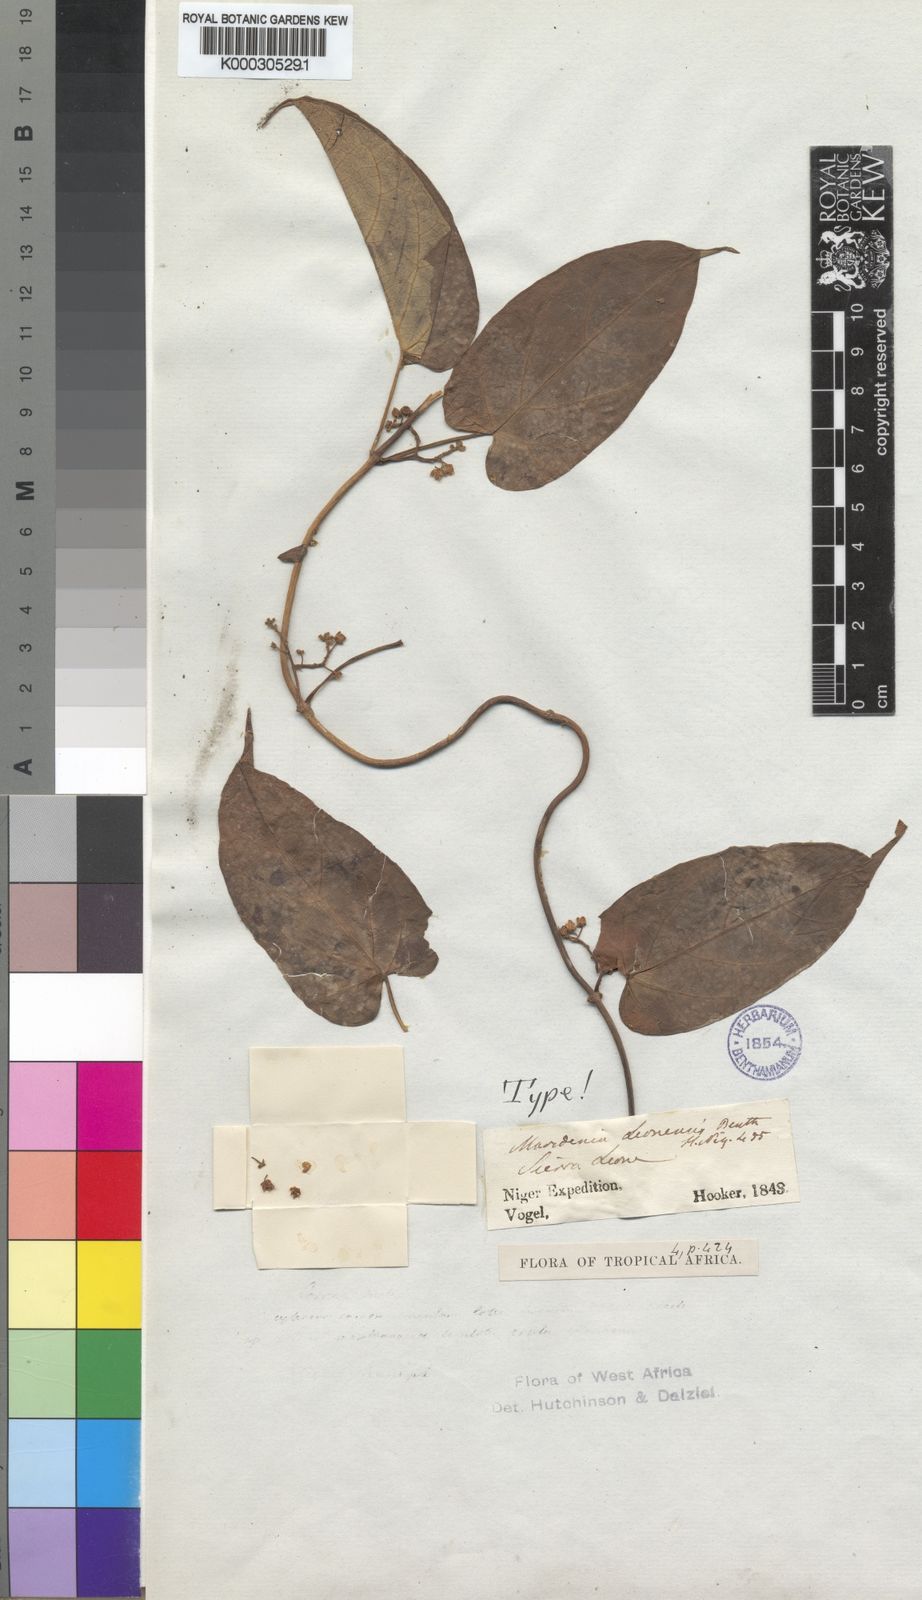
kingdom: Plantae
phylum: Tracheophyta
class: Magnoliopsida
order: Gentianales
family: Apocynaceae
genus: Gongronemopsis
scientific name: Gongronemopsis latifolia
